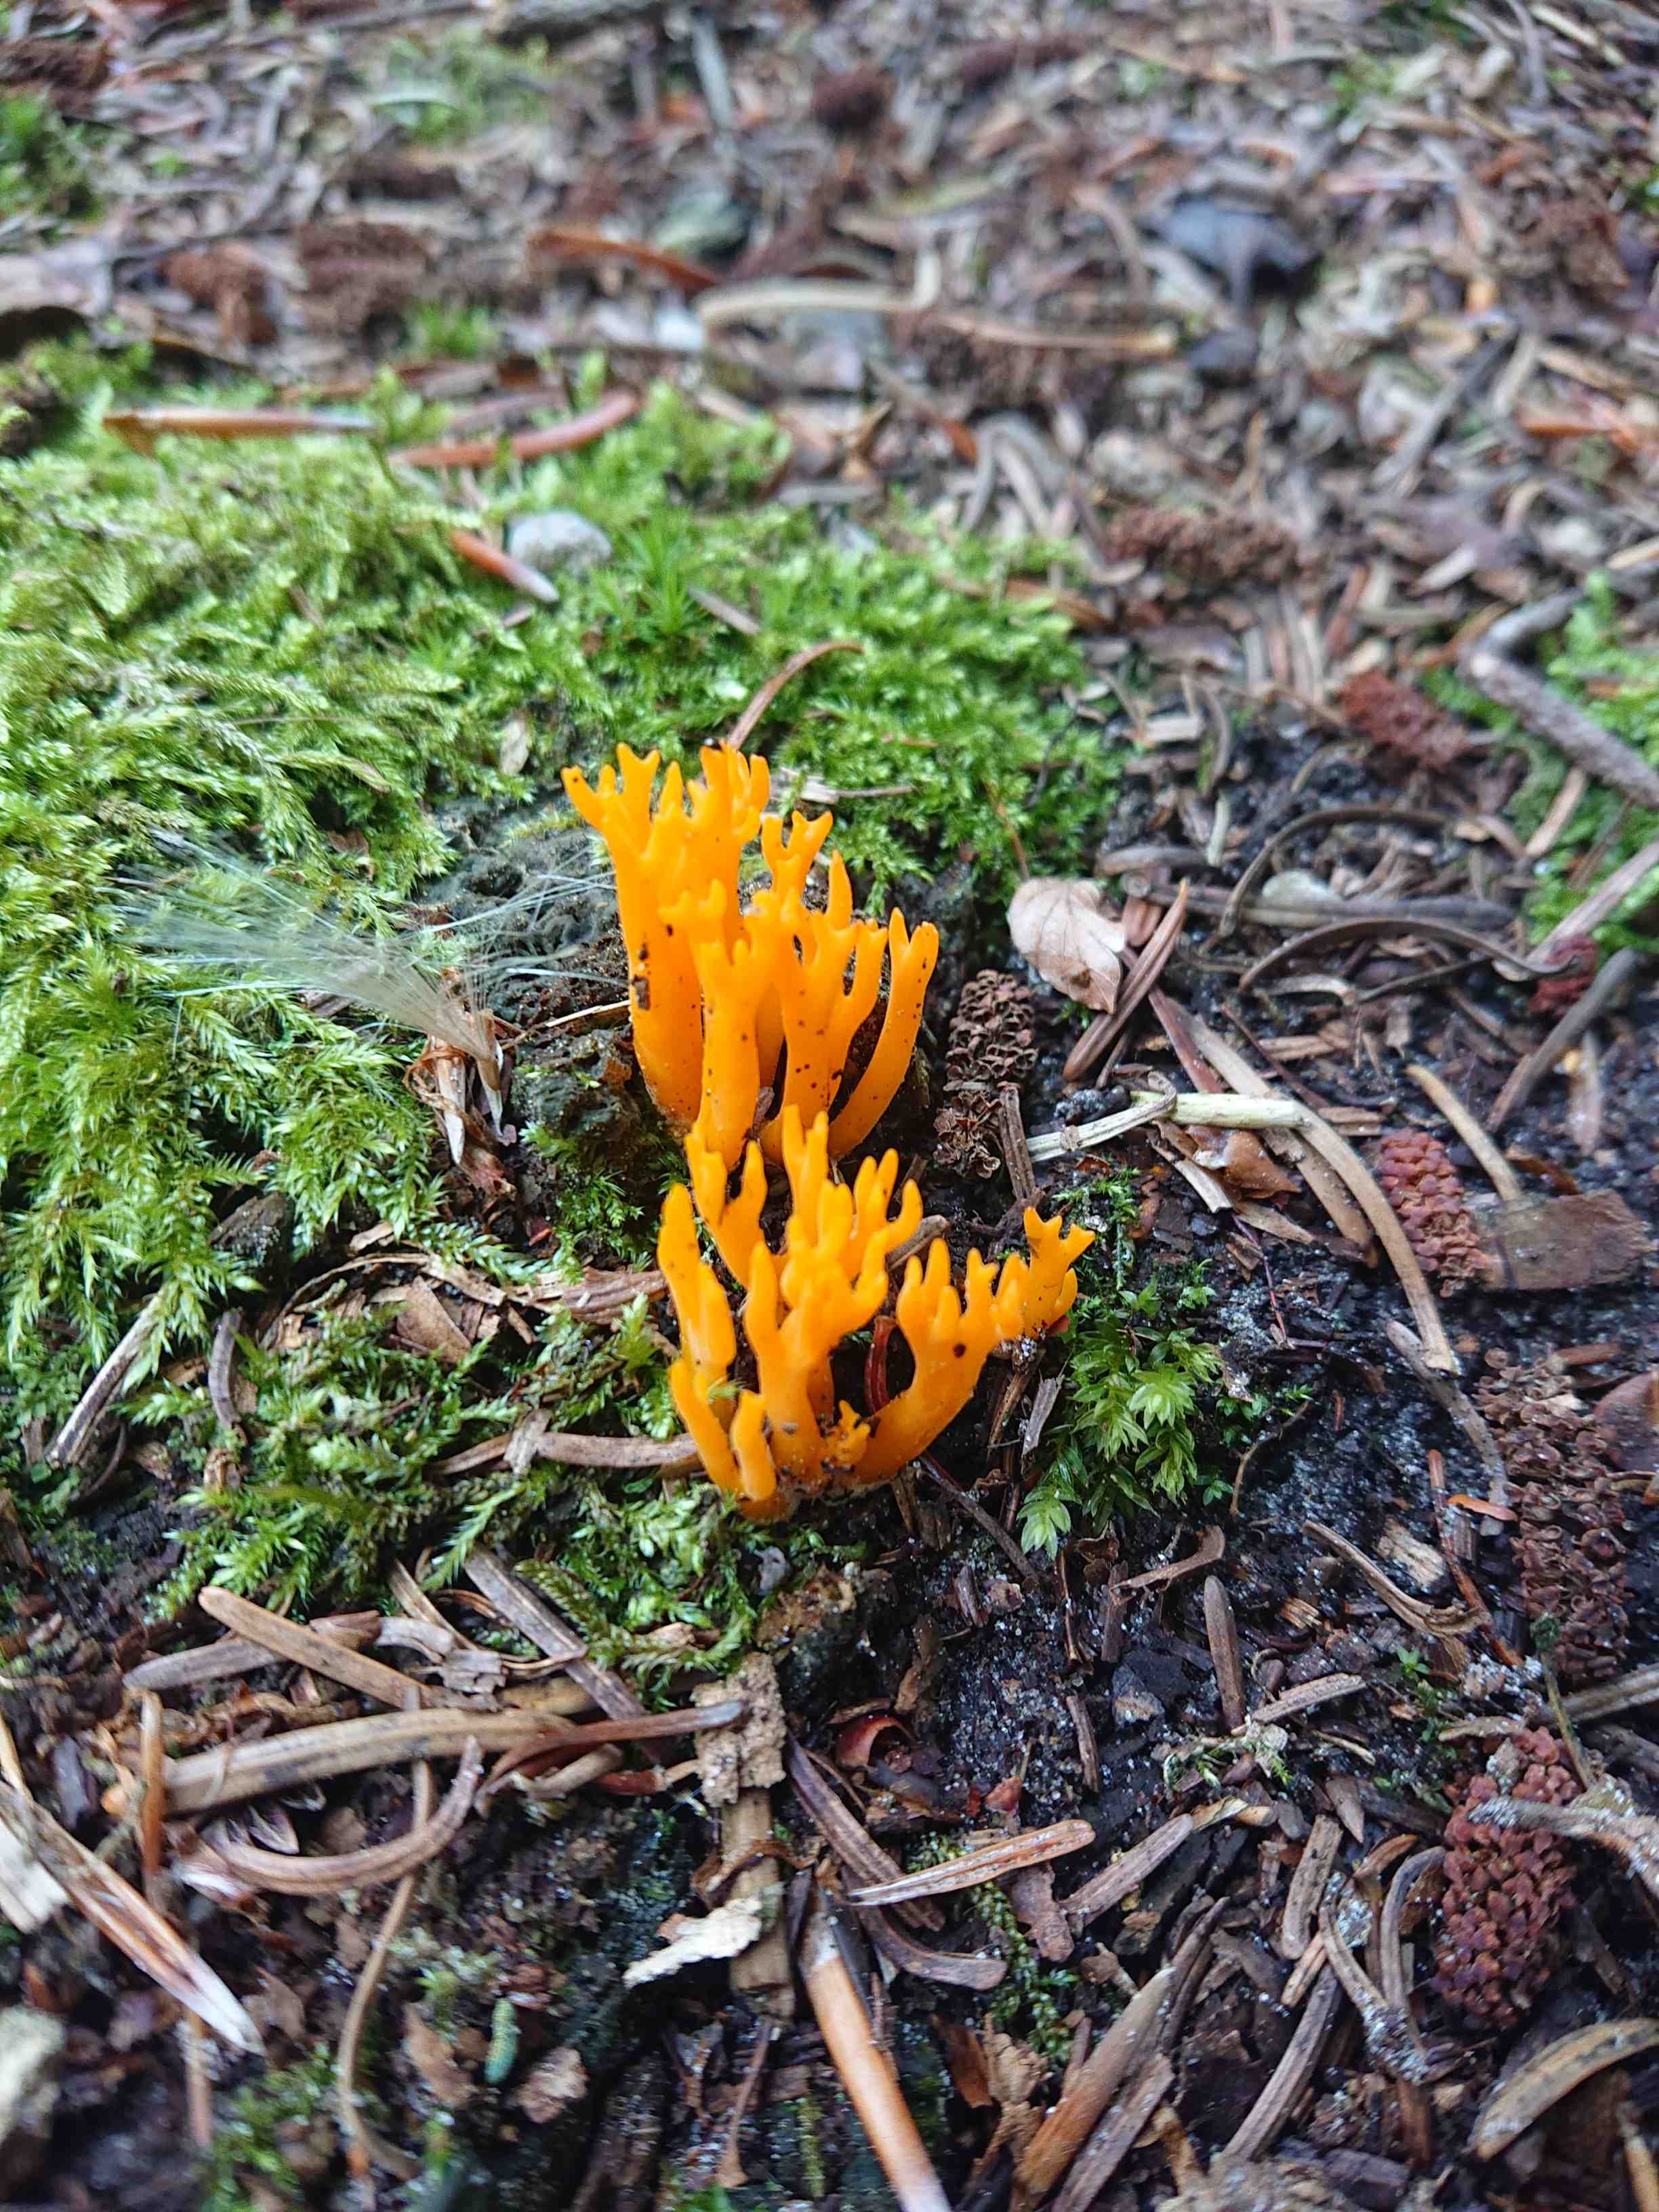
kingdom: Fungi
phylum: Basidiomycota
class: Dacrymycetes
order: Dacrymycetales
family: Dacrymycetaceae
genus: Calocera
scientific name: Calocera viscosa
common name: almindelig guldgaffel
